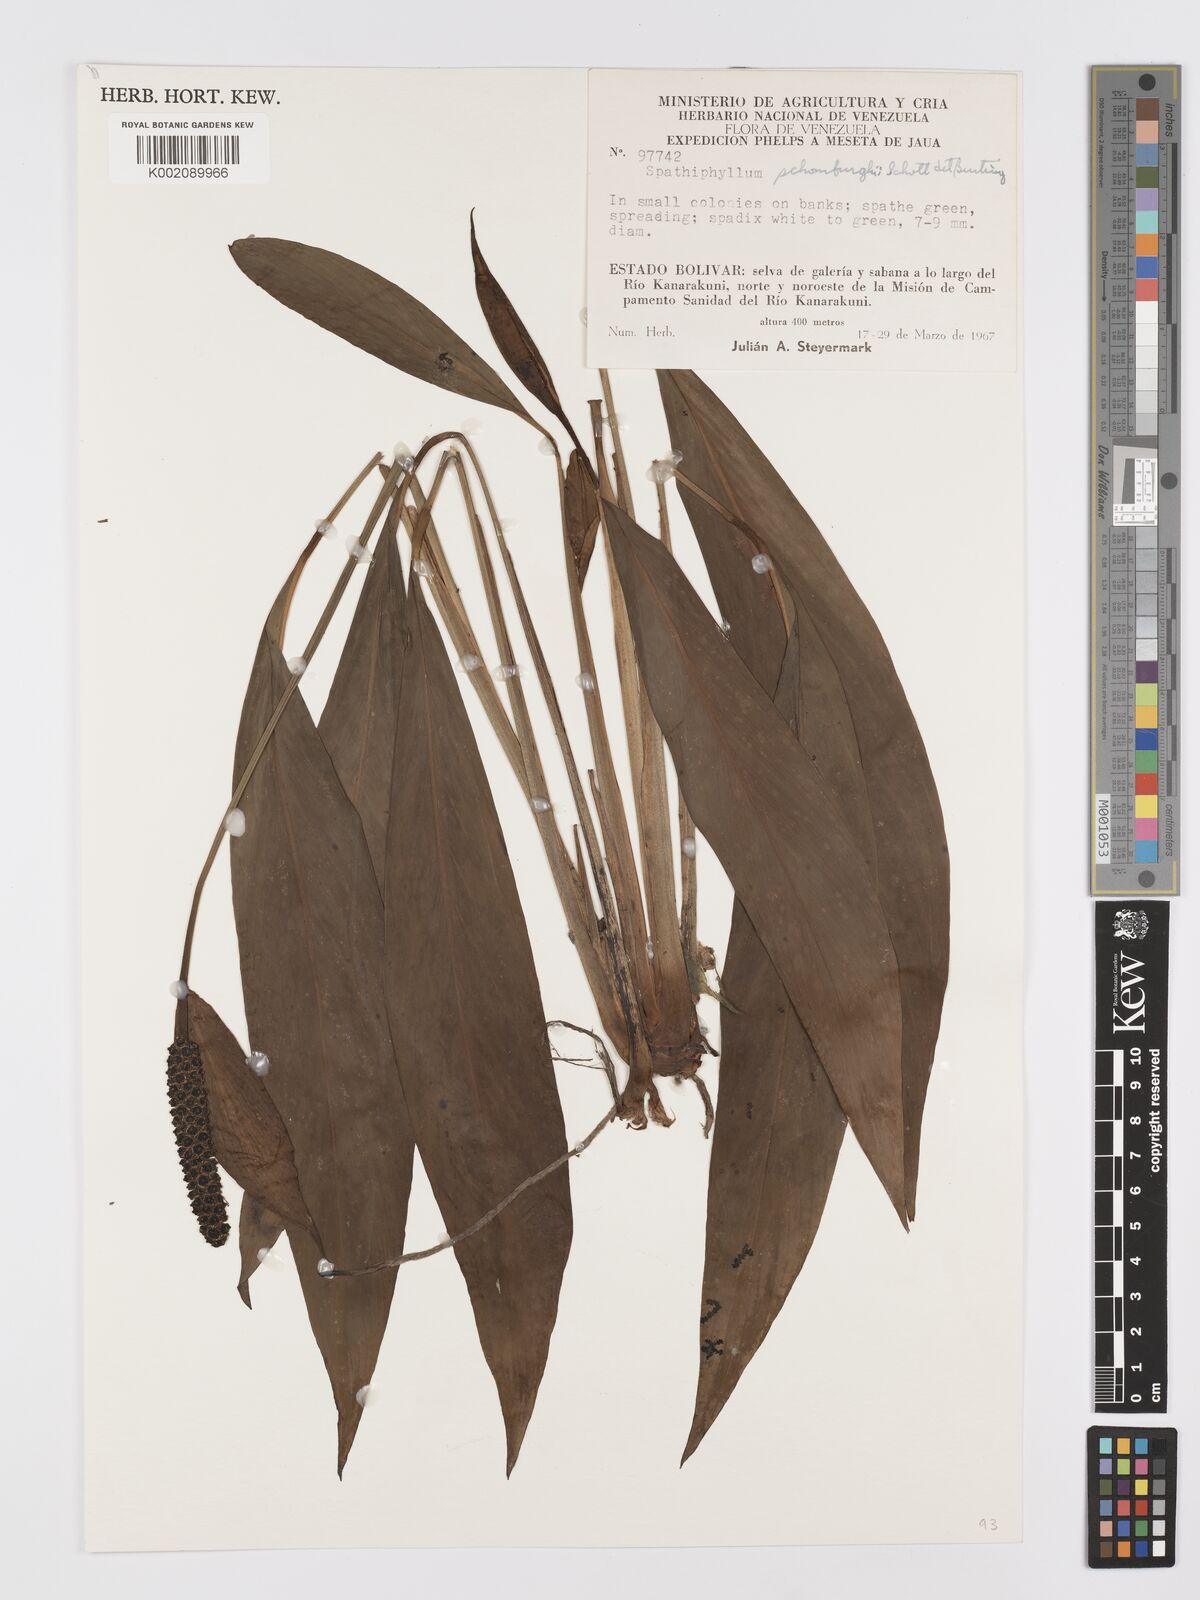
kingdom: Plantae
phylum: Tracheophyta
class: Liliopsida
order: Alismatales
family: Araceae
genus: Spathiphyllum
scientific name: Spathiphyllum schomburgkii
